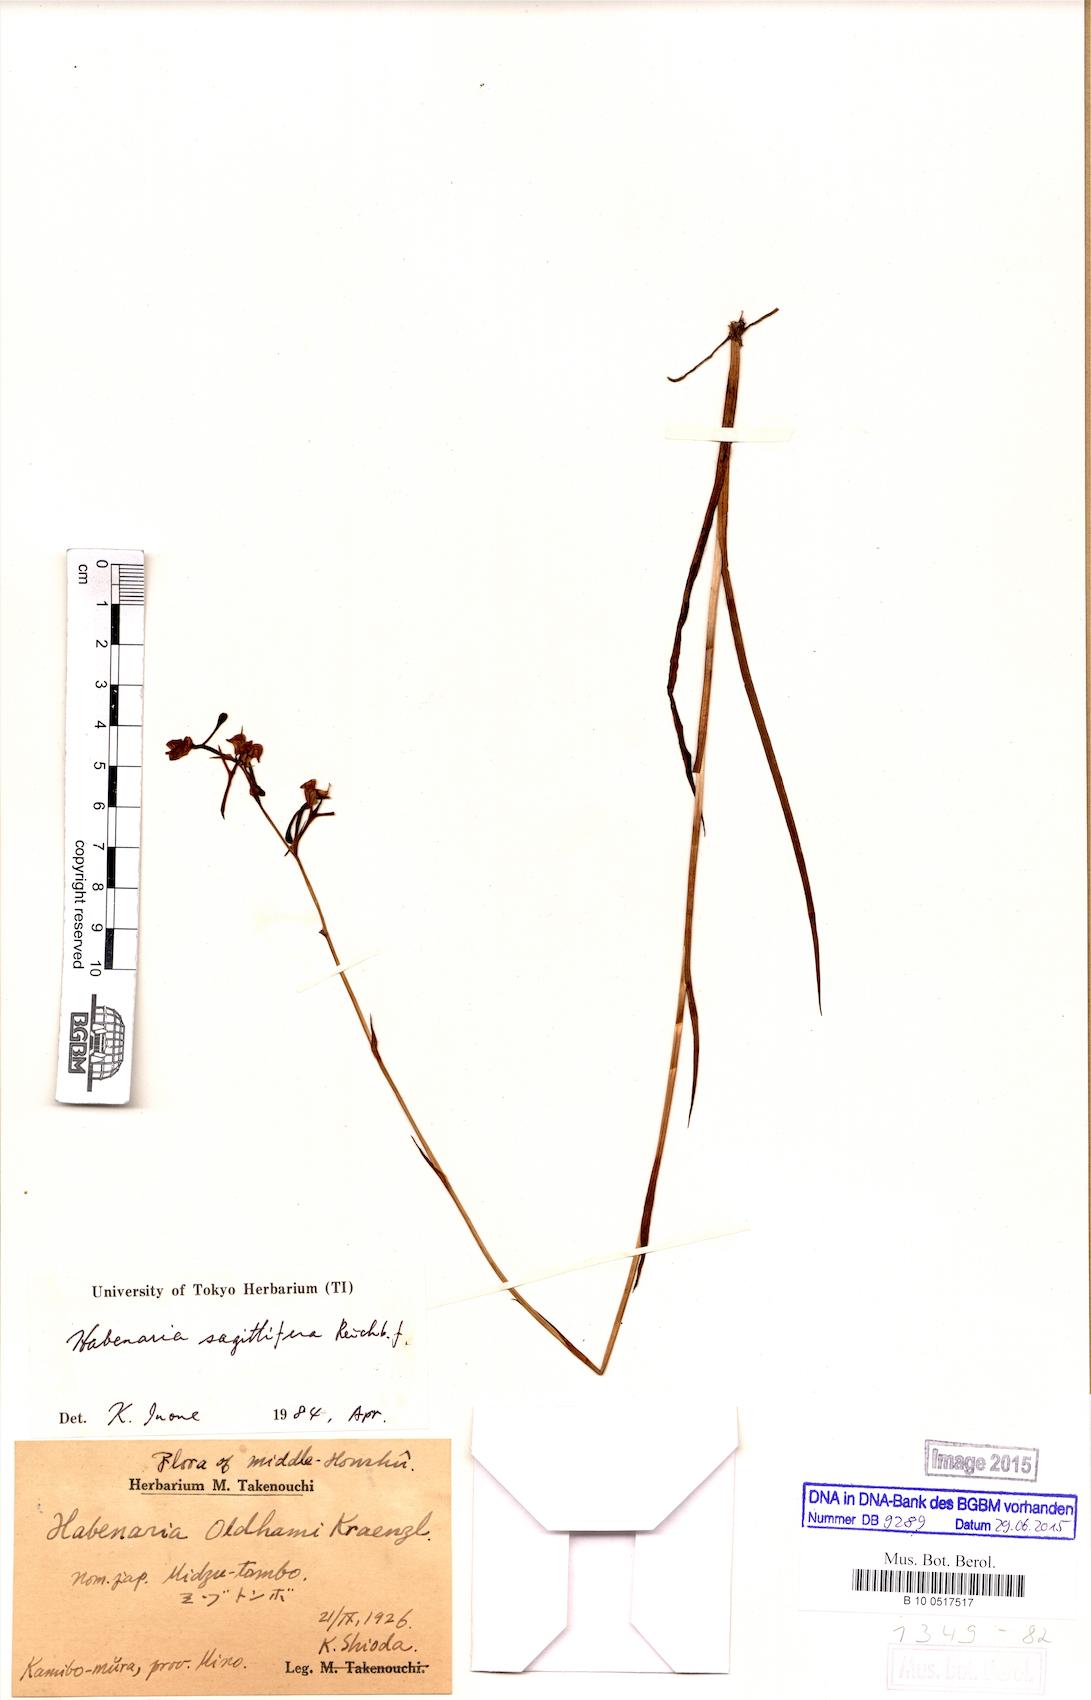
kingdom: Plantae
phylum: Tracheophyta
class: Liliopsida
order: Asparagales
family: Orchidaceae
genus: Habenaria
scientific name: Habenaria sagittifera
